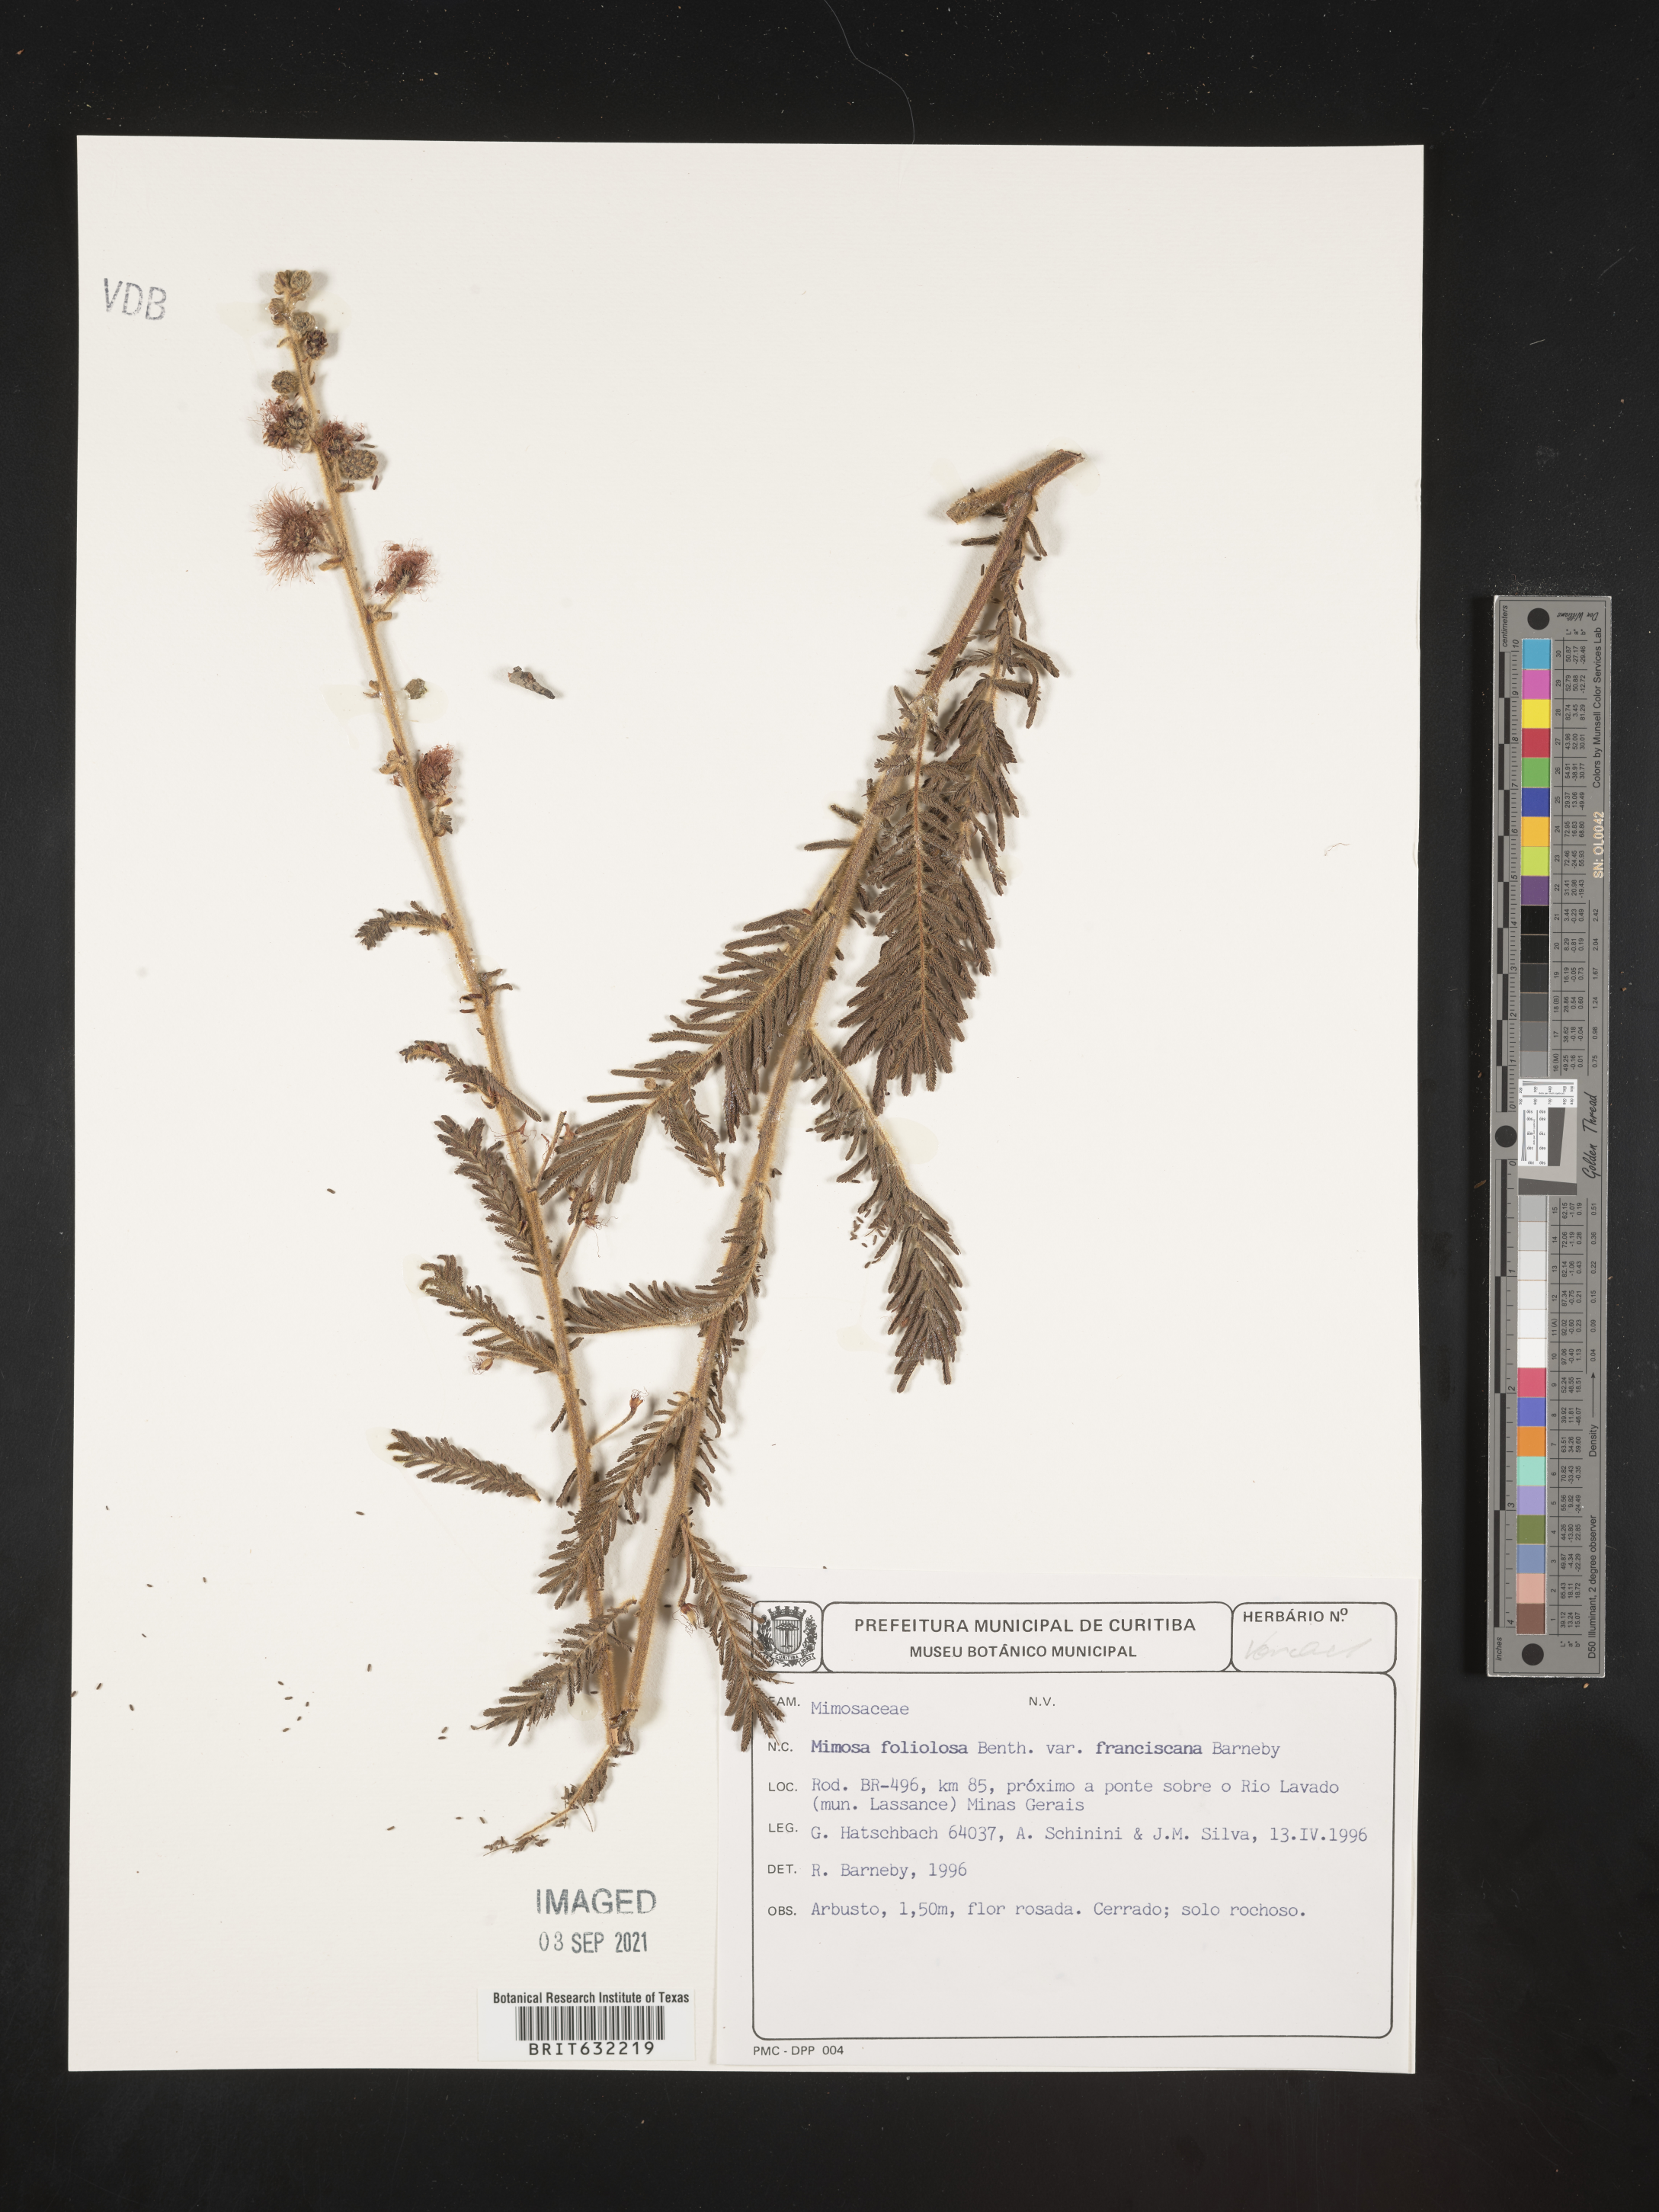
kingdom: Plantae
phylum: Tracheophyta
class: Magnoliopsida
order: Fabales
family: Fabaceae
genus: Mimosa
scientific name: Mimosa
